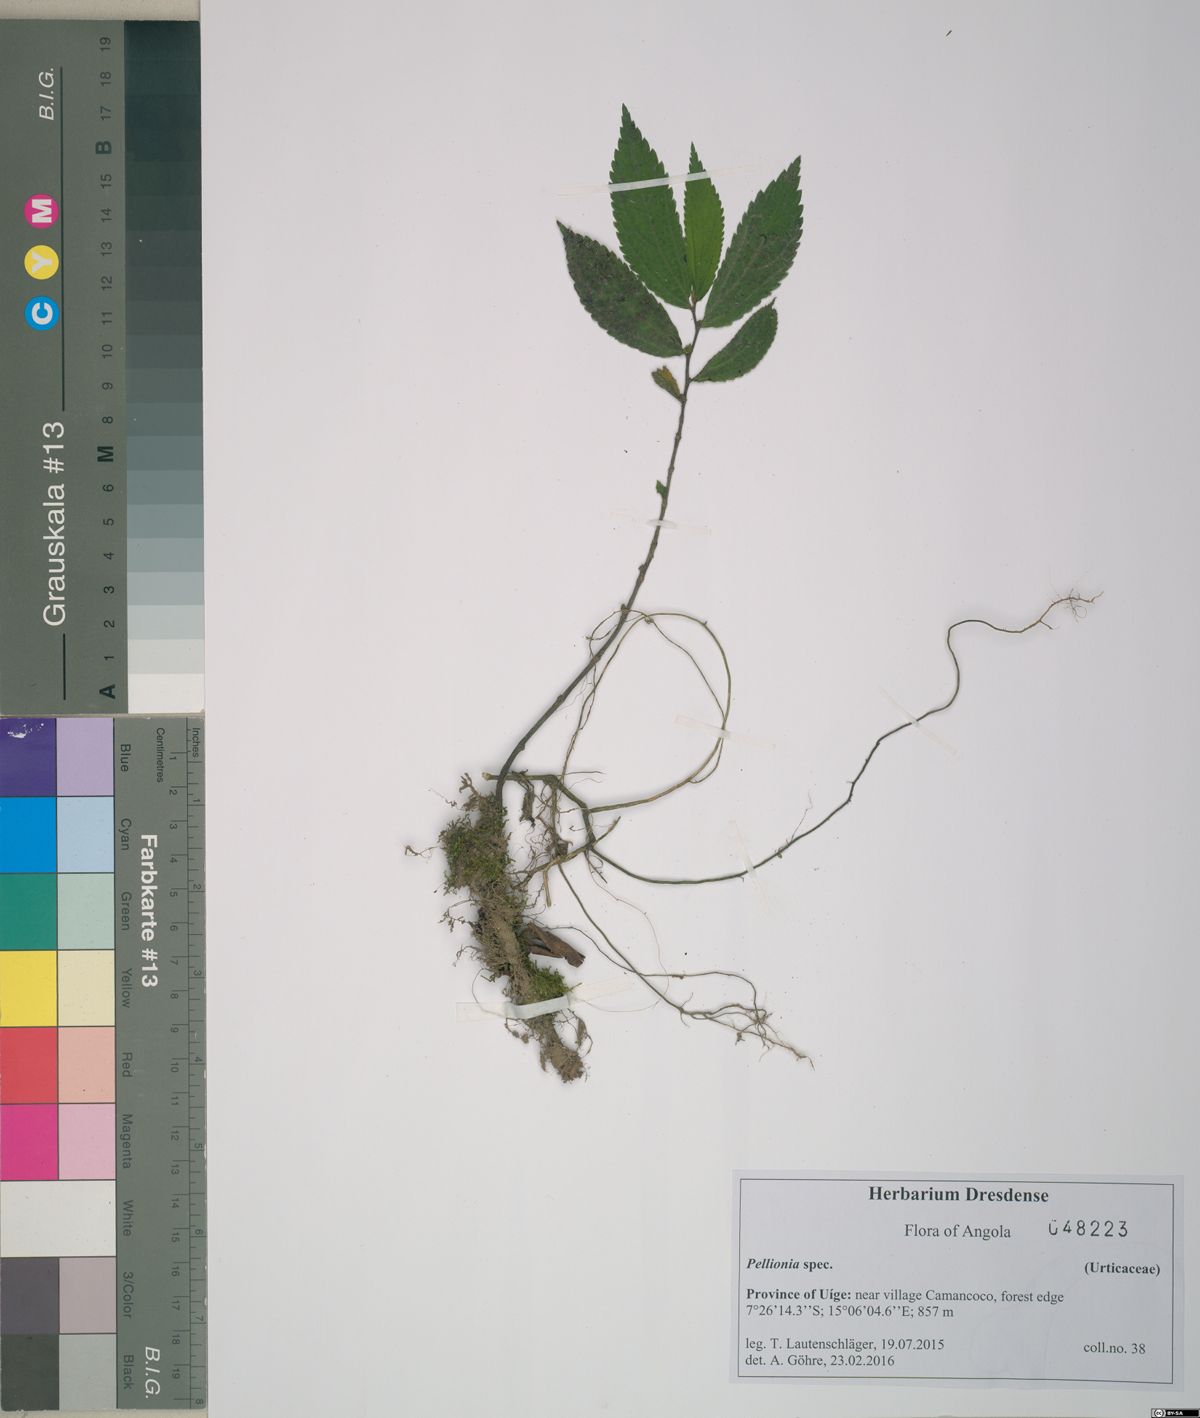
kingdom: Plantae
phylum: Tracheophyta
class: Magnoliopsida
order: Rosales
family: Urticaceae
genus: Pellionia
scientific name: Pellionia
